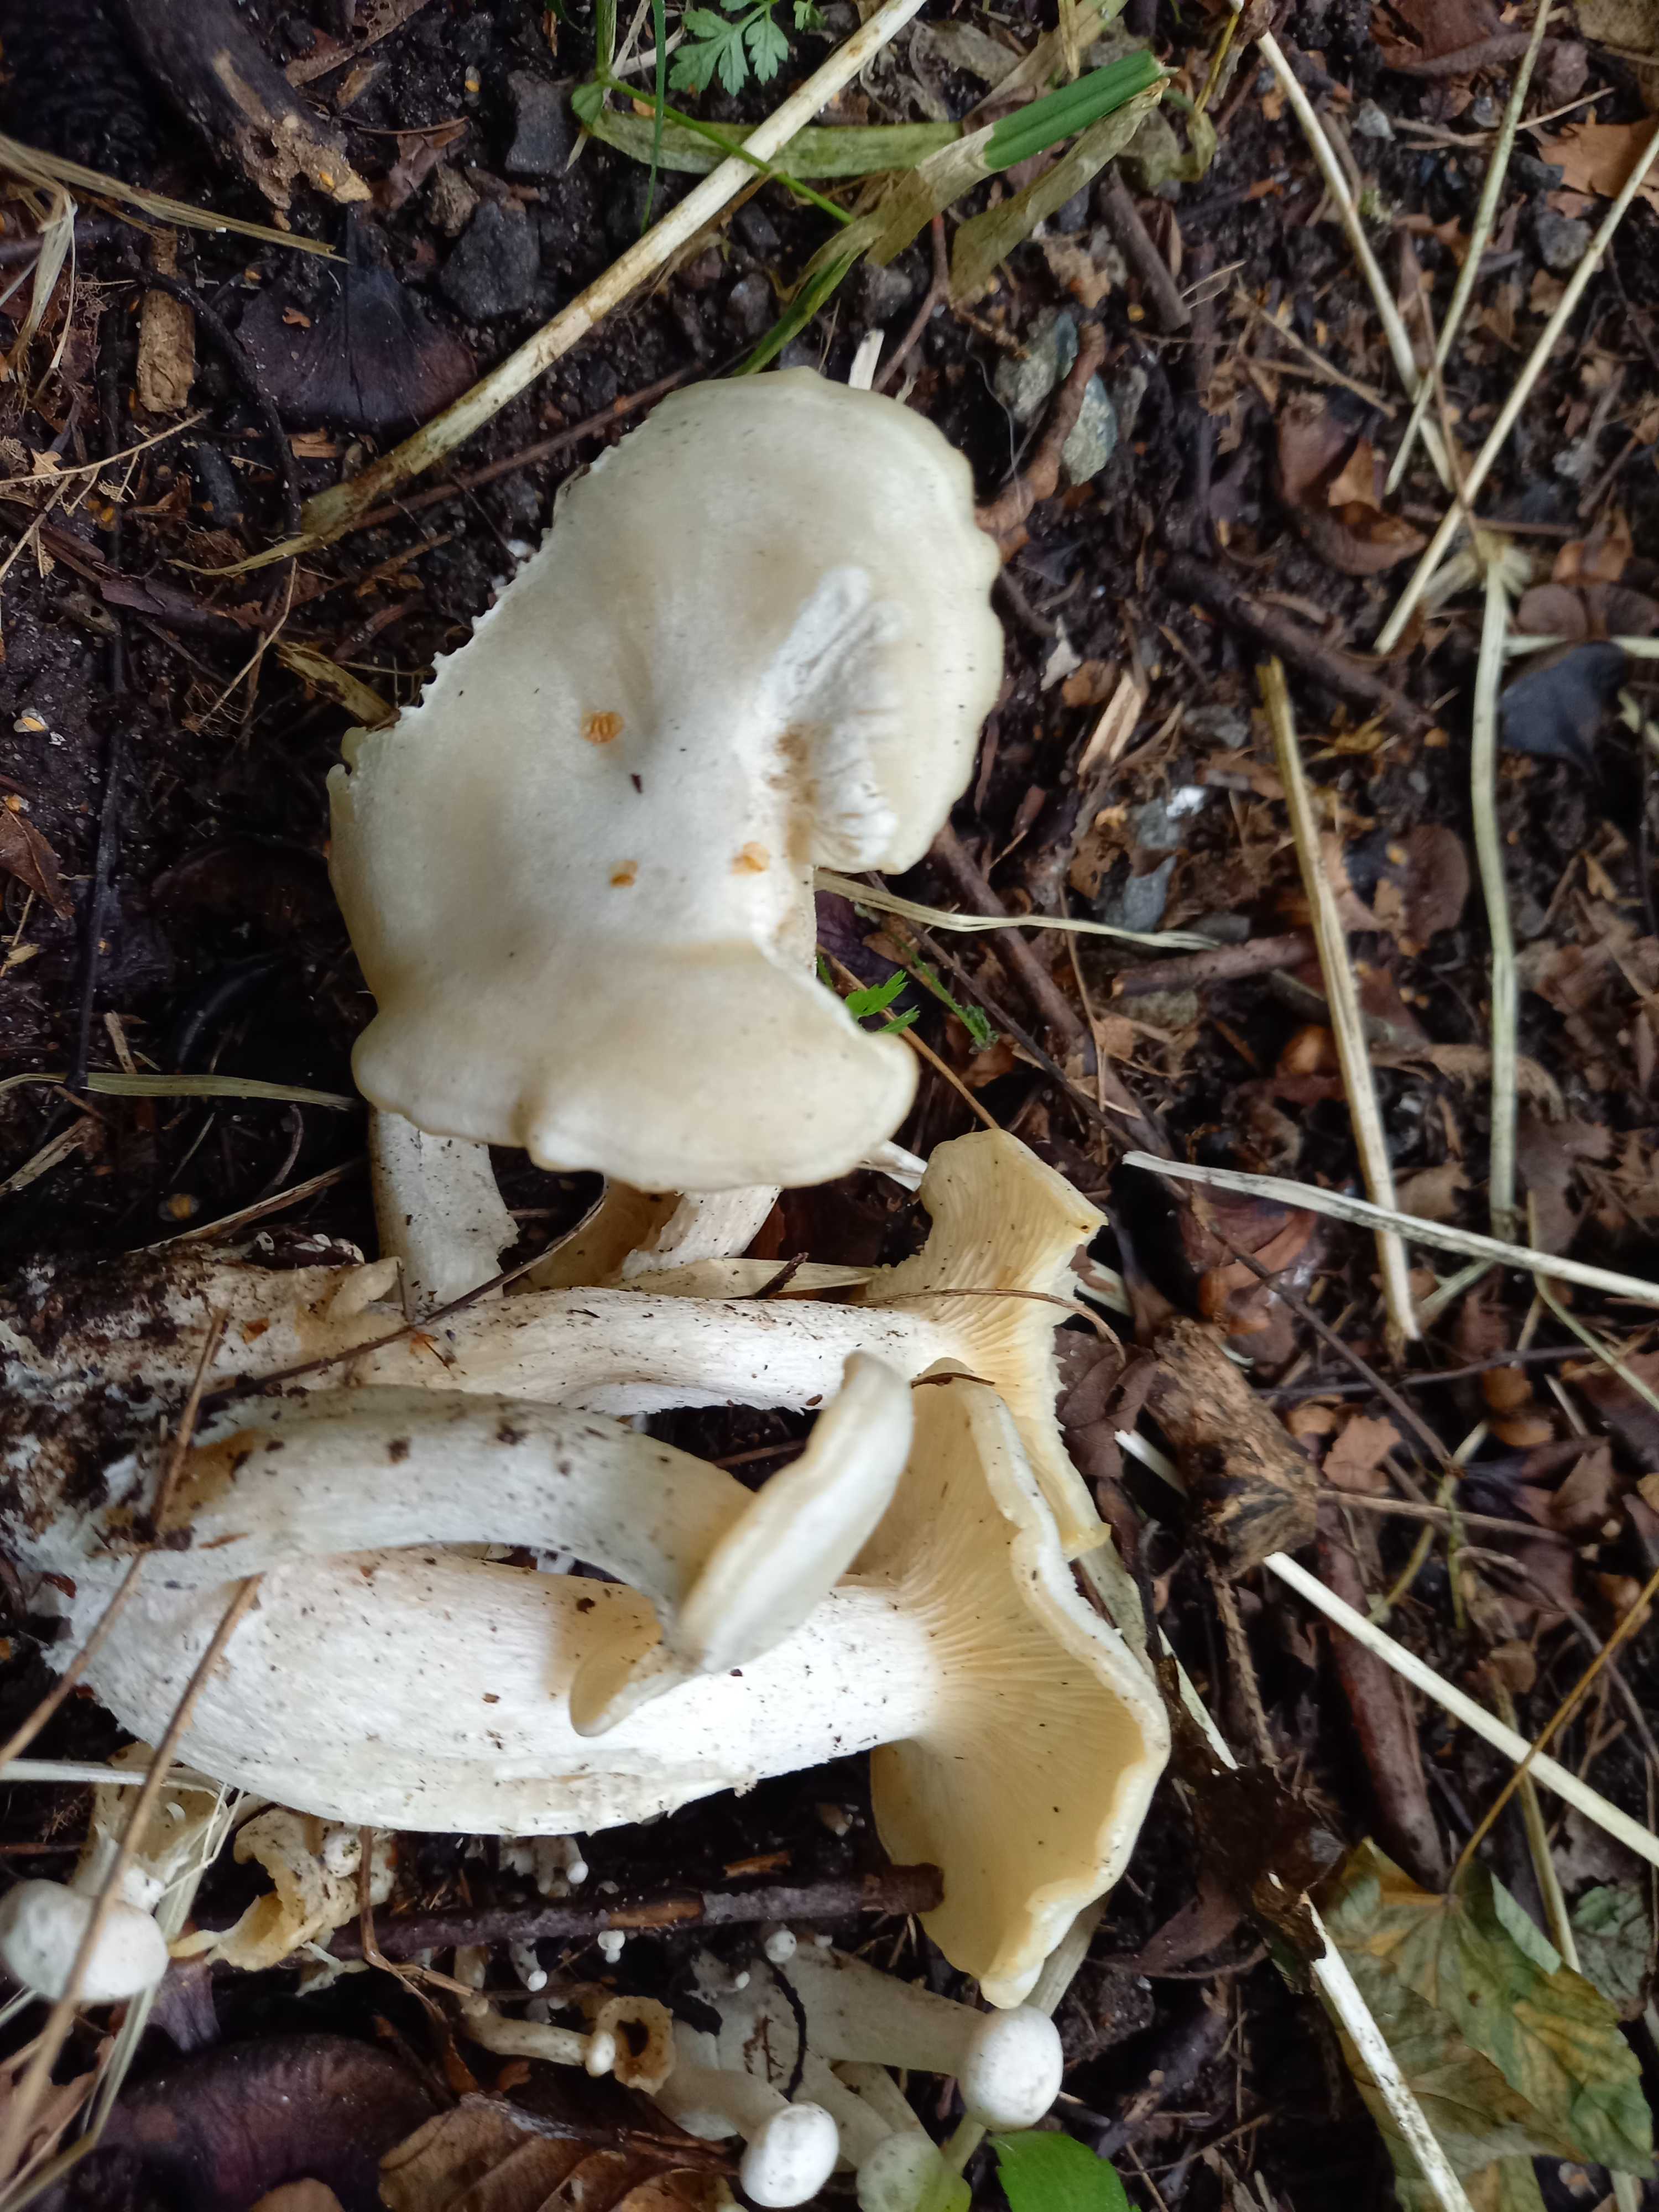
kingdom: Fungi
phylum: Basidiomycota
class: Agaricomycetes
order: Agaricales
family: Tricholomataceae
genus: Leucocybe
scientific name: Leucocybe connata
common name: knippe-tragthat
